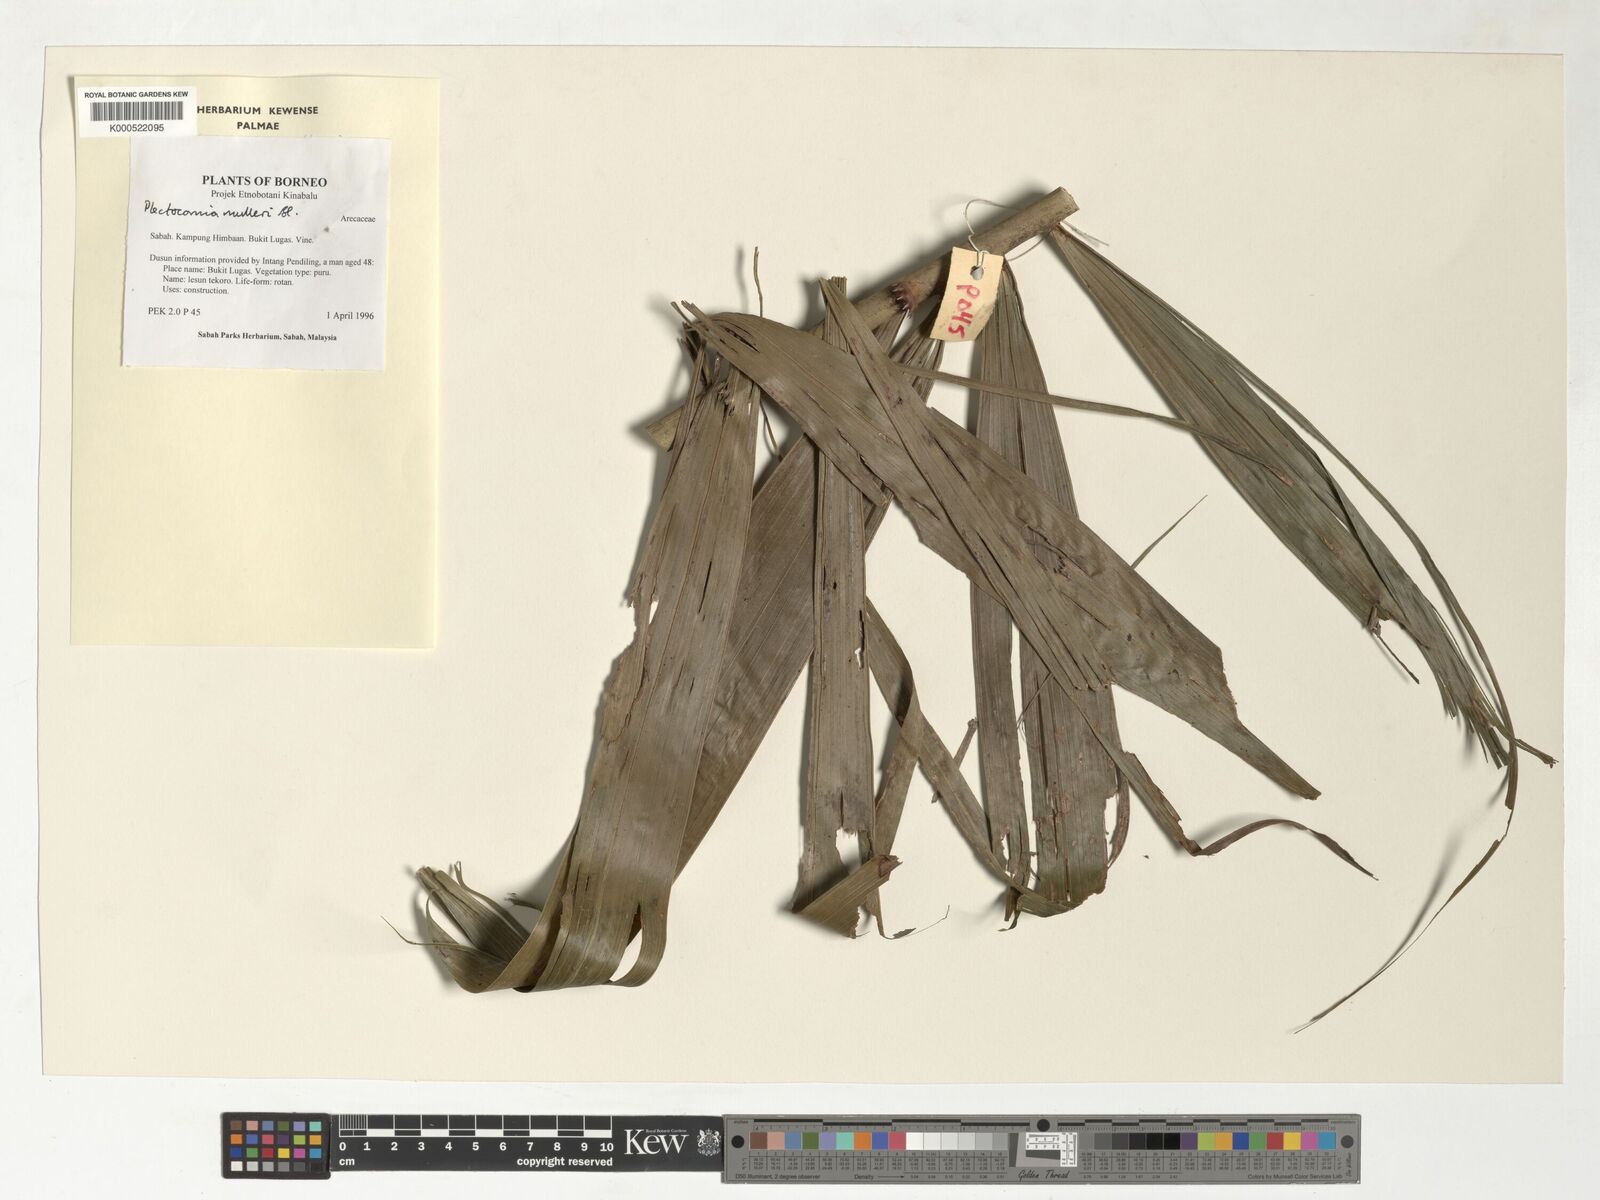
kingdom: Plantae
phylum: Tracheophyta
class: Liliopsida
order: Arecales
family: Arecaceae
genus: Plectocomia
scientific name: Plectocomia mulleri
